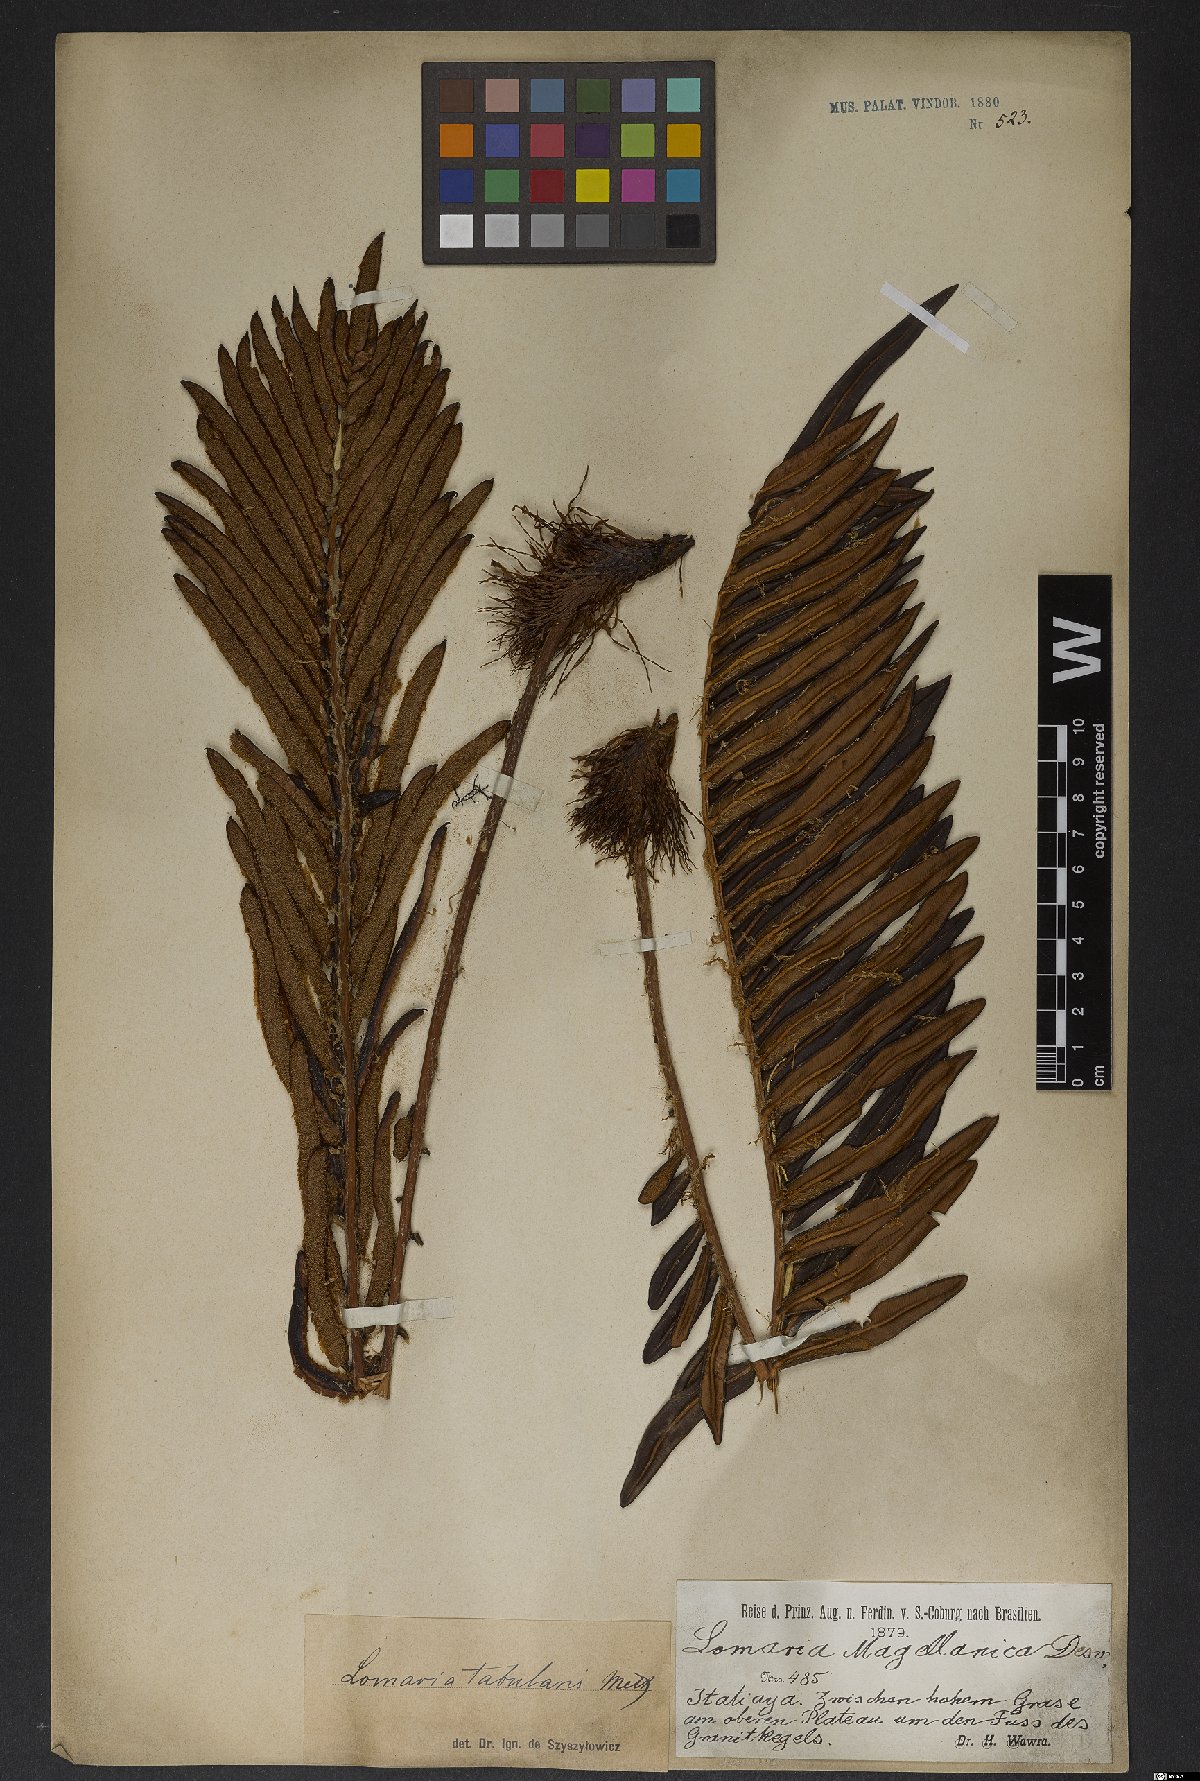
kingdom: Plantae
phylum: Tracheophyta
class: Polypodiopsida
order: Polypodiales
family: Blechnaceae
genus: Lomariocycas
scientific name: Lomariocycas tabularis
